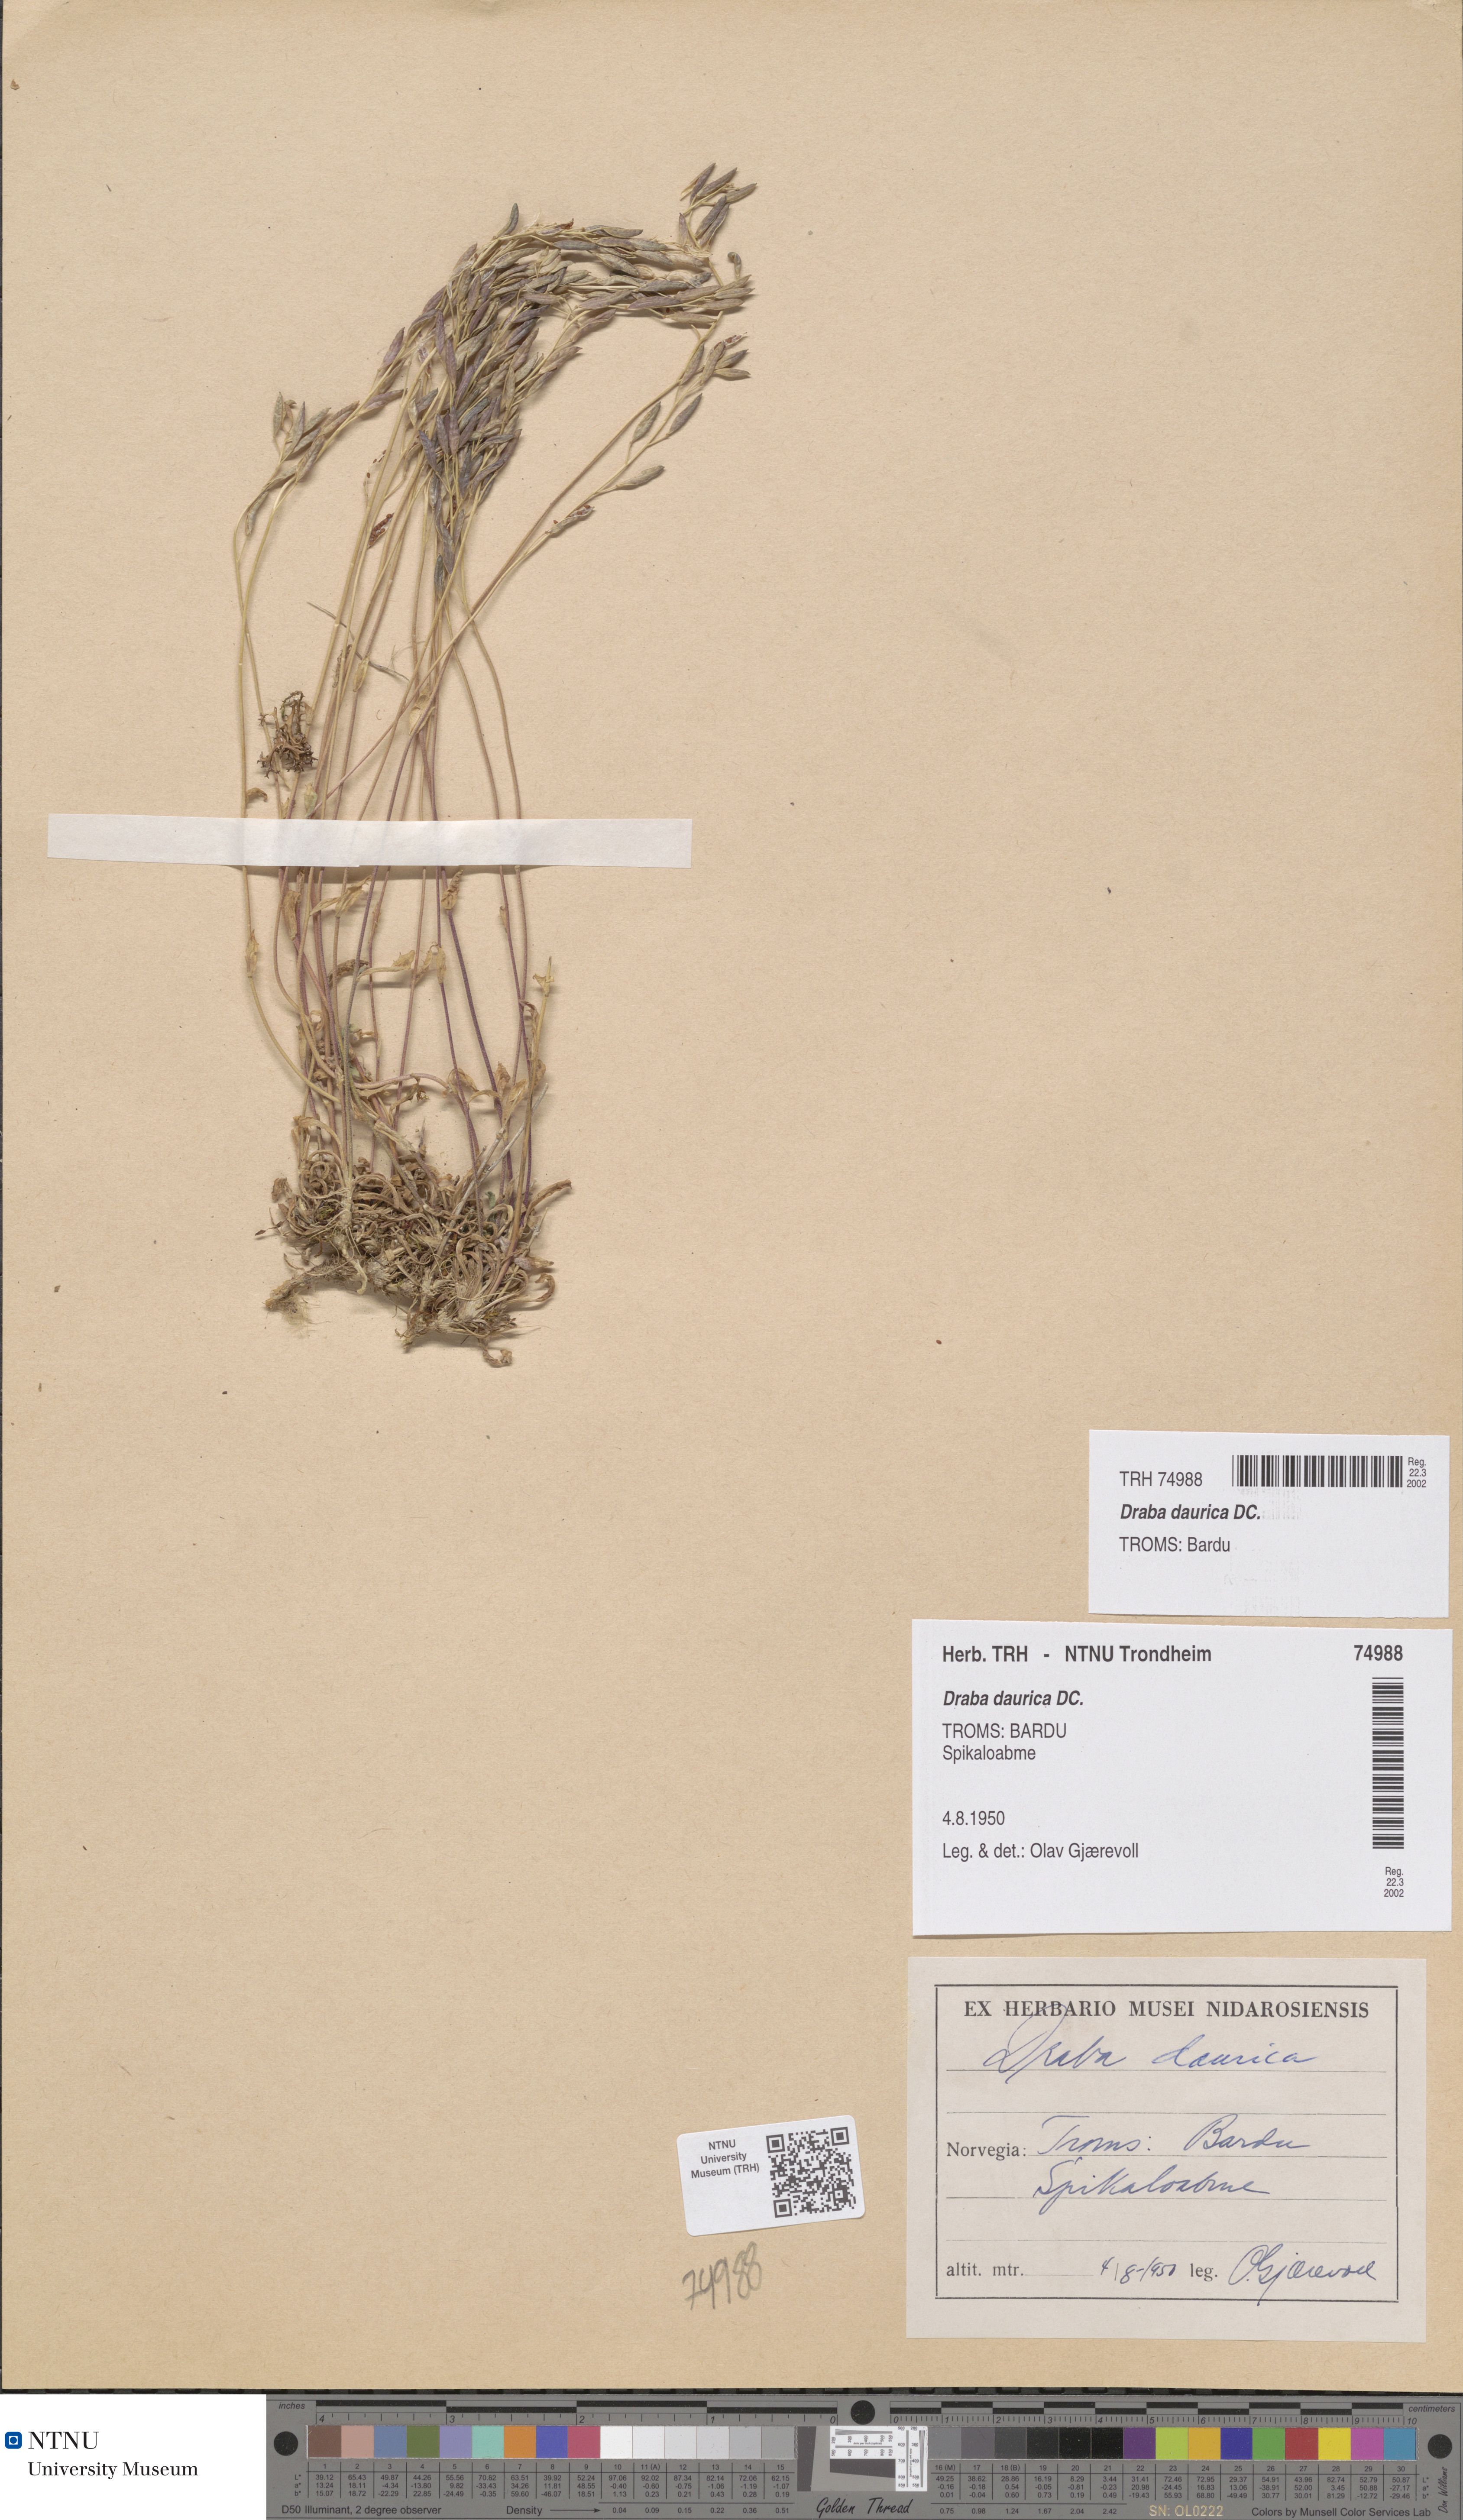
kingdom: Plantae
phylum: Tracheophyta
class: Magnoliopsida
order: Brassicales
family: Brassicaceae
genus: Draba
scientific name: Draba glabella
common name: Glaucous draba
